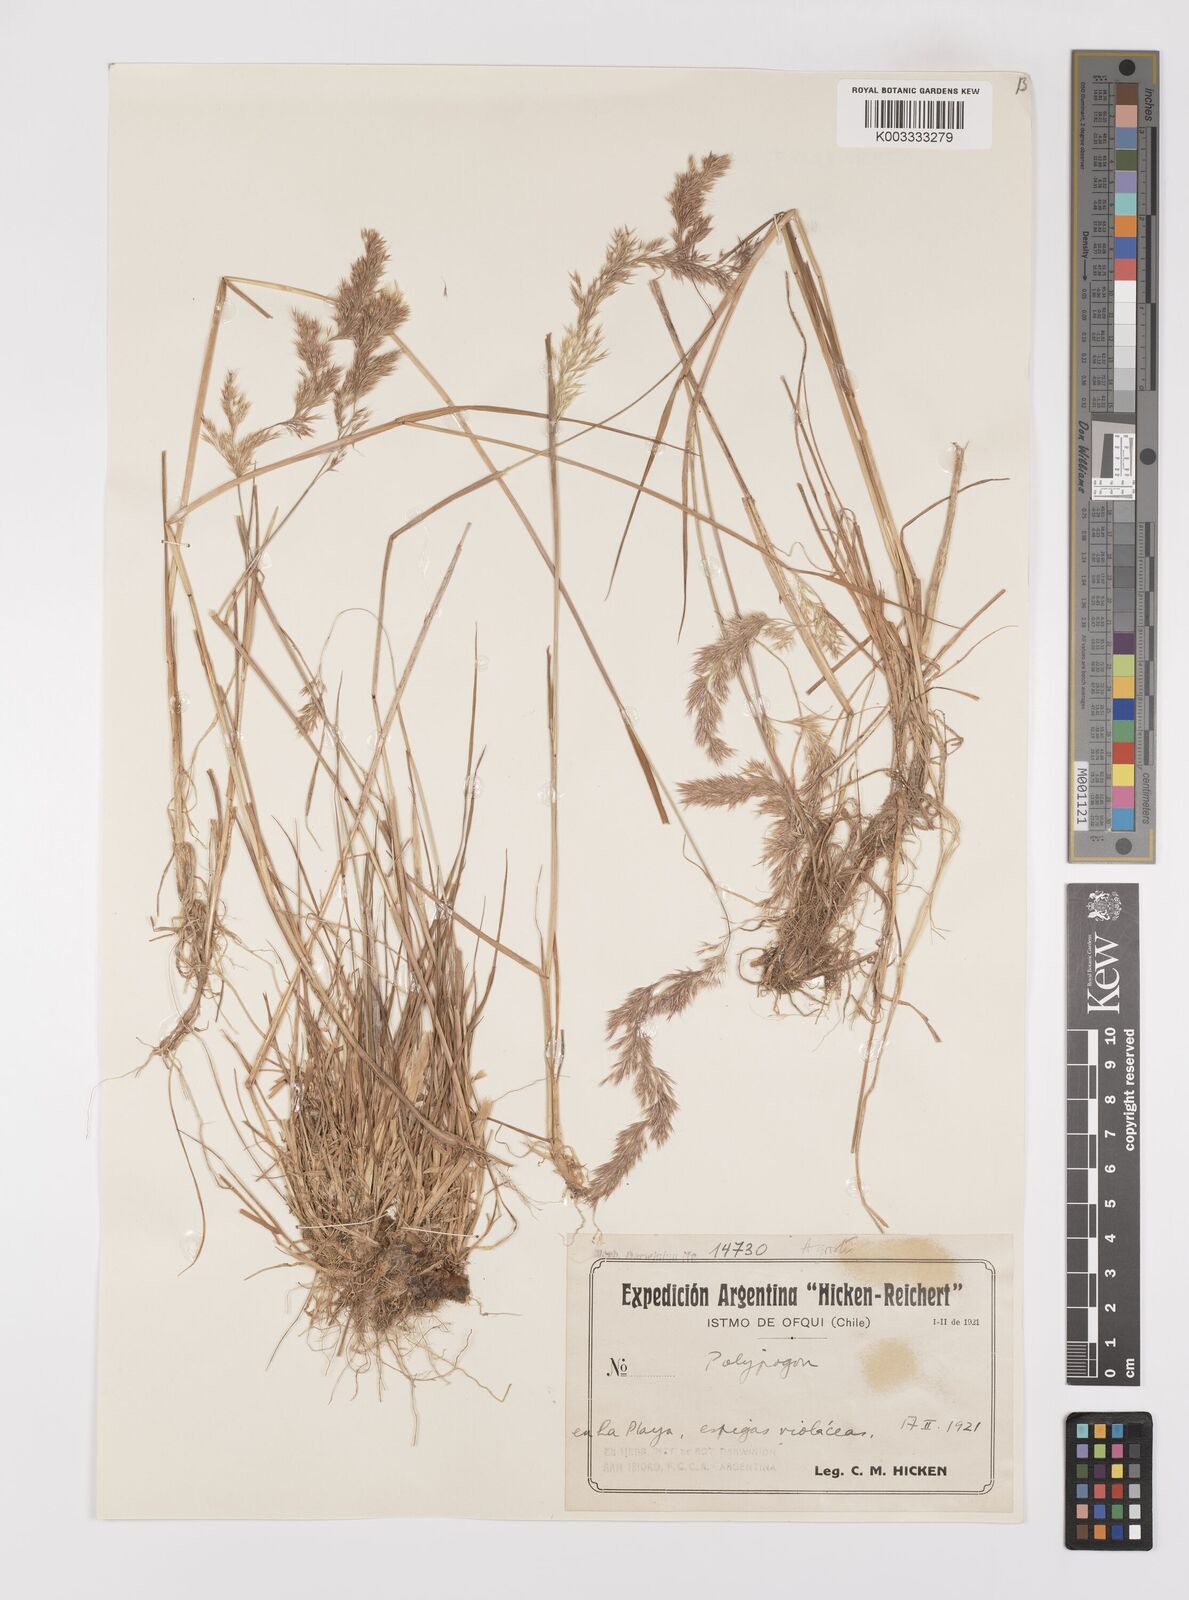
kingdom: Plantae
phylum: Tracheophyta
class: Liliopsida
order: Poales
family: Poaceae
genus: Polypogon
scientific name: Polypogon magellanicus
